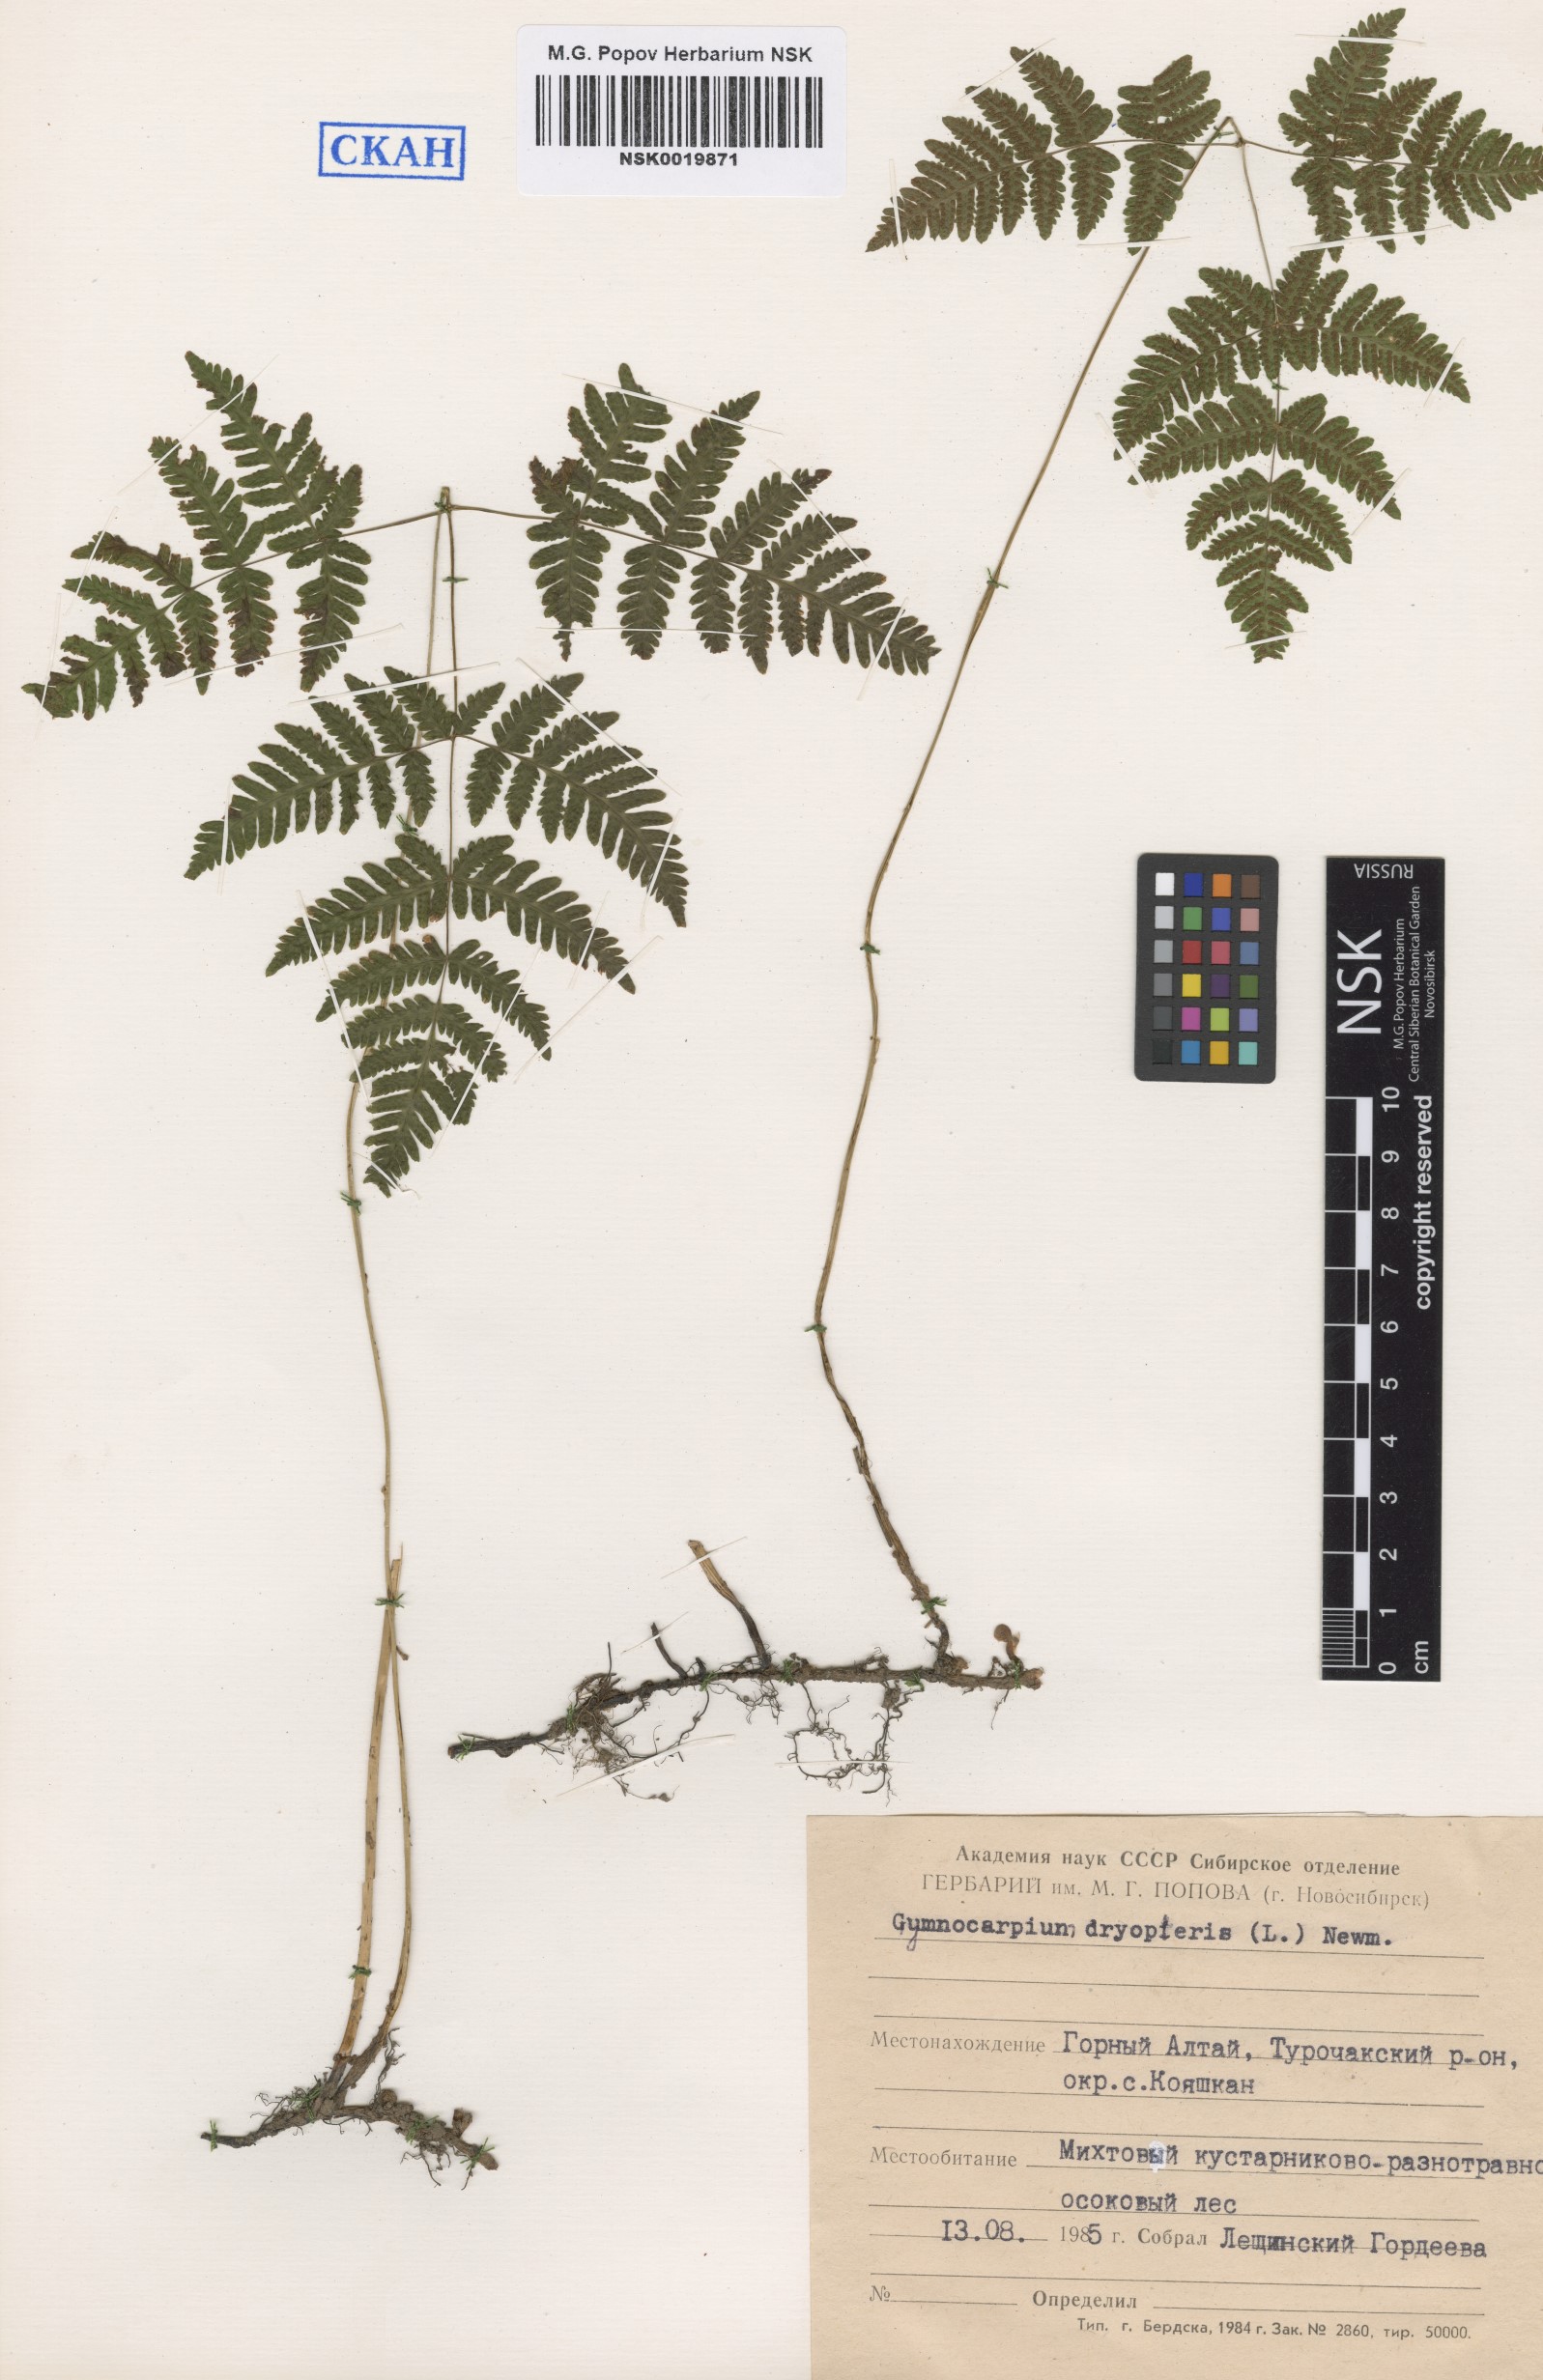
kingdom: Plantae
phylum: Tracheophyta
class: Polypodiopsida
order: Polypodiales
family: Cystopteridaceae
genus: Gymnocarpium
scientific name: Gymnocarpium dryopteris
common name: Oak fern
